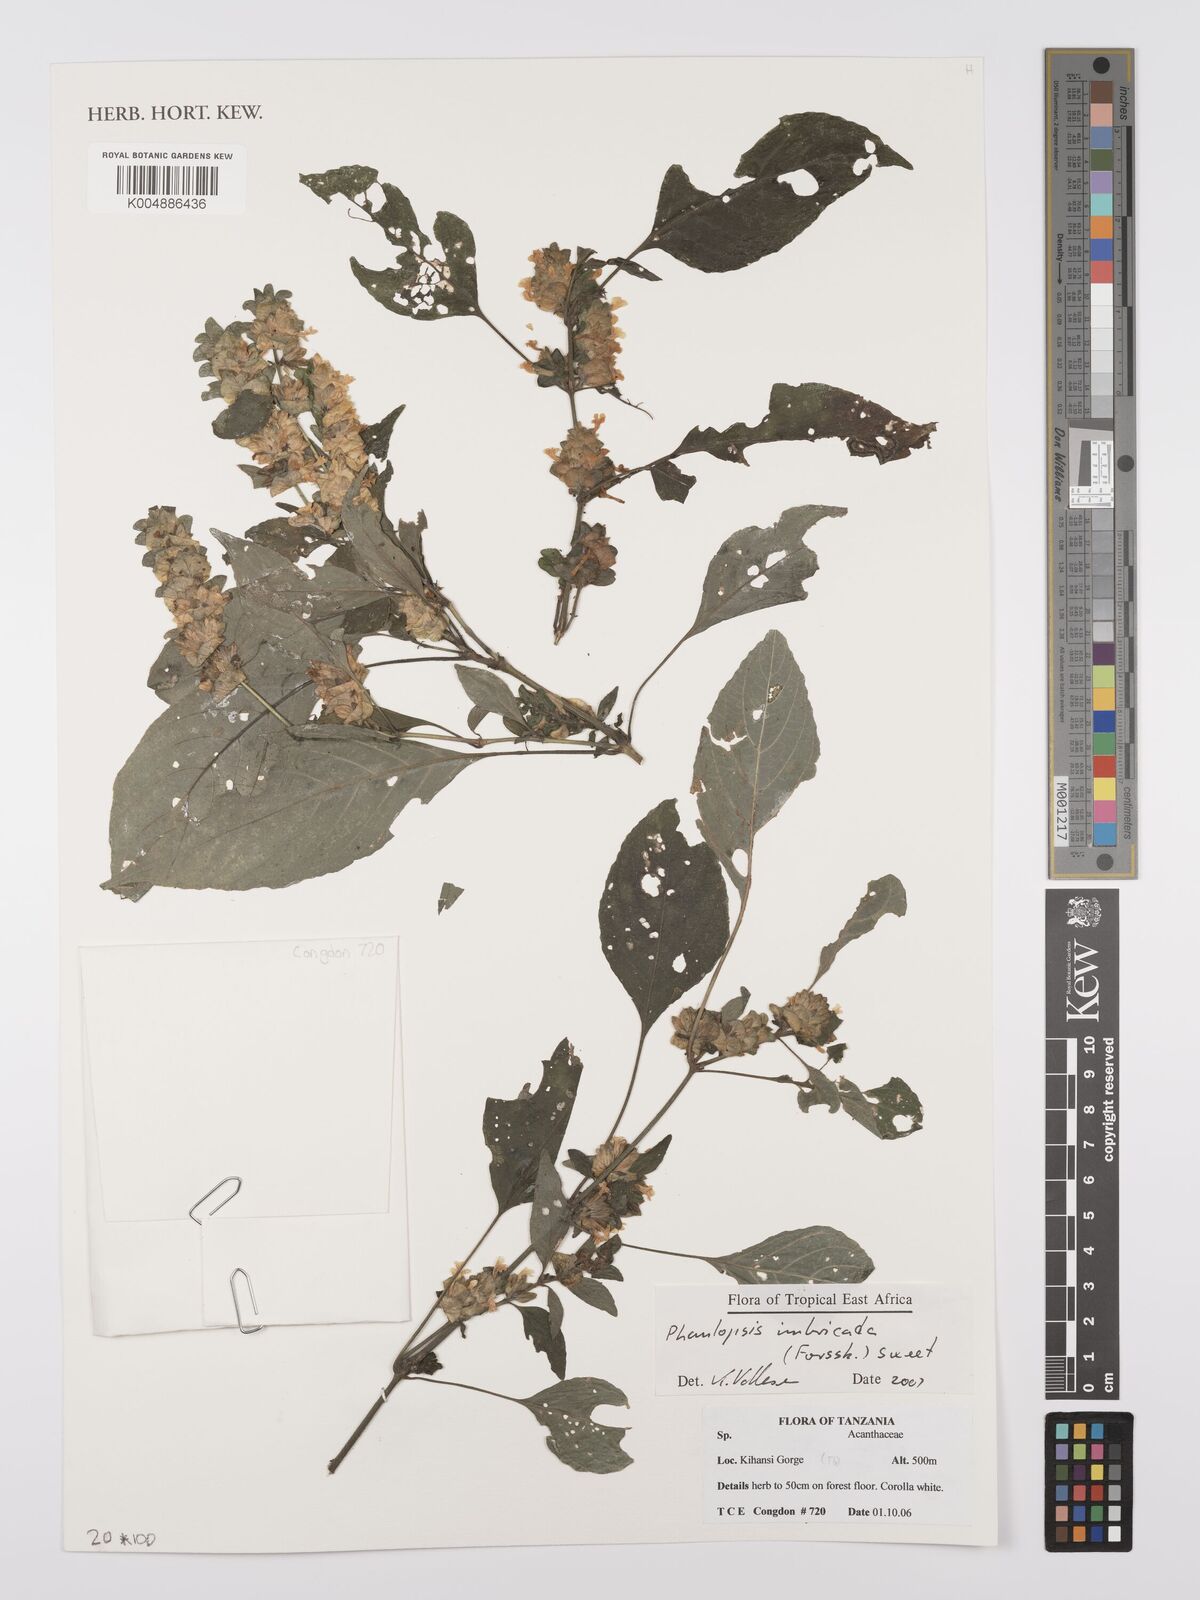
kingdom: Plantae
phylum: Tracheophyta
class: Magnoliopsida
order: Lamiales
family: Acanthaceae
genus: Phaulopsis
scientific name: Phaulopsis imbricata
